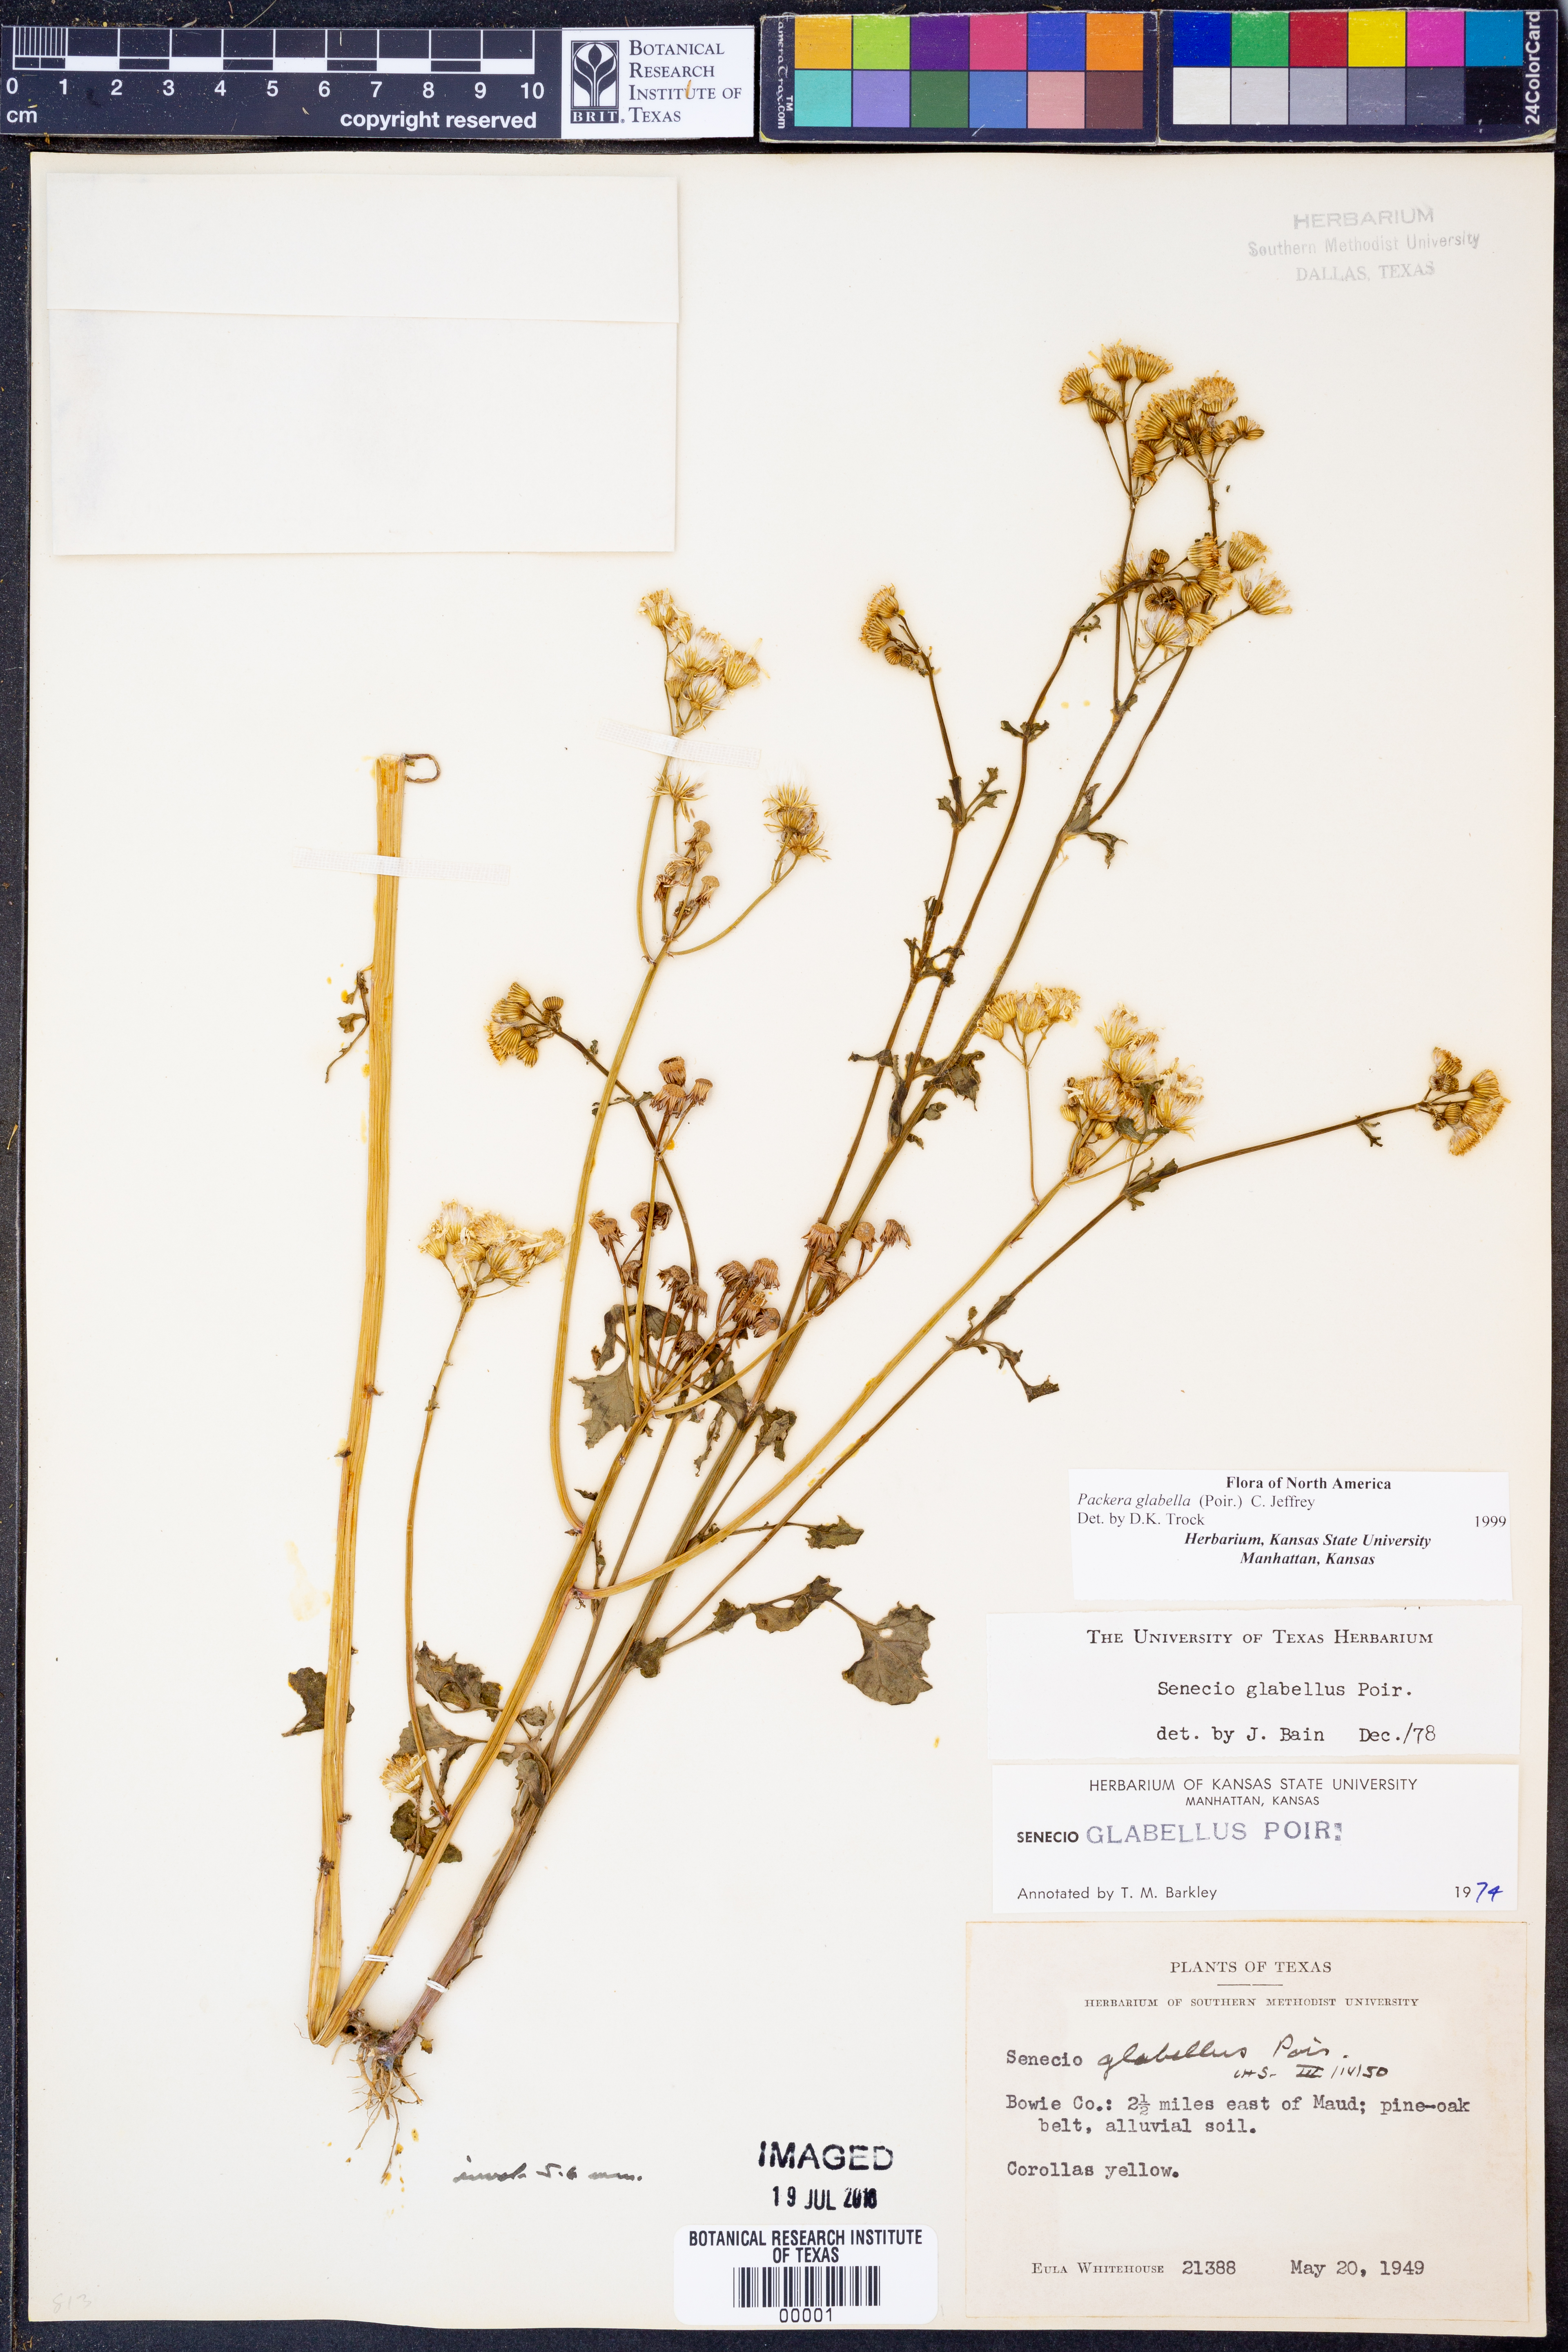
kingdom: Plantae
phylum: Tracheophyta
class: Magnoliopsida
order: Asterales
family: Asteraceae
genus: Packera
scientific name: Packera glabella
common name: Butterweed
